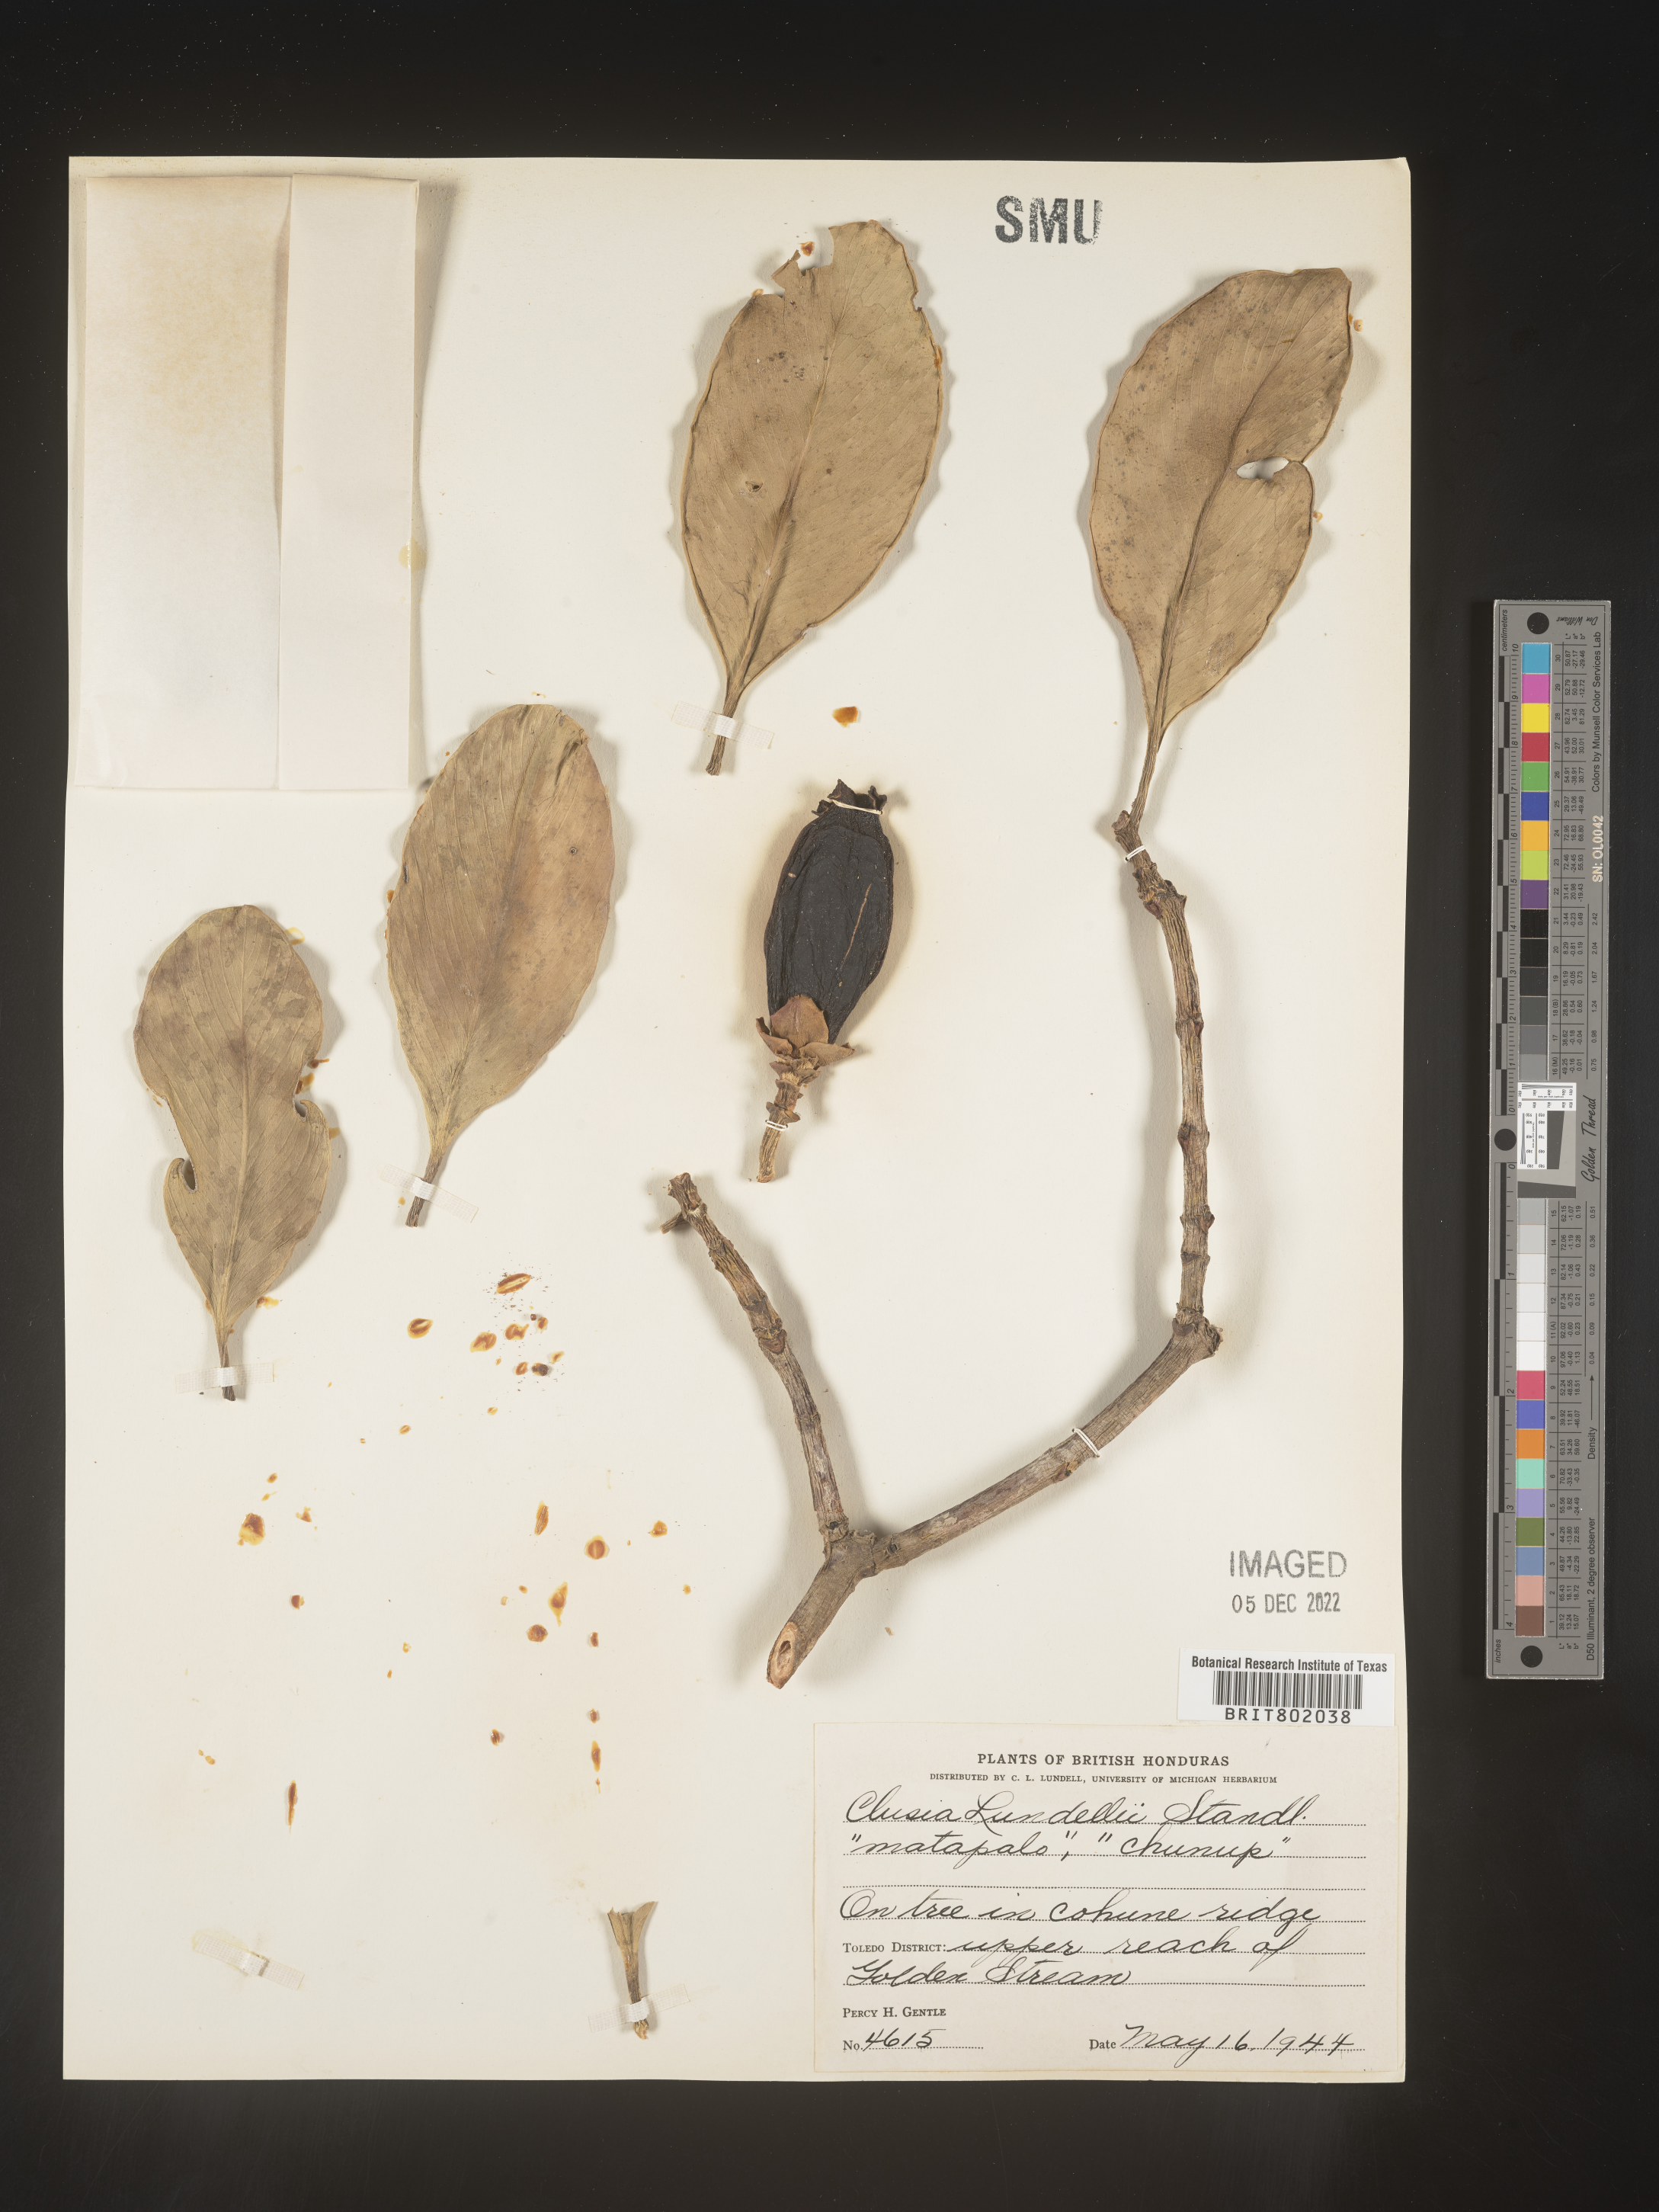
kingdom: Plantae
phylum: Tracheophyta
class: Magnoliopsida
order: Malpighiales
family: Clusiaceae
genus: Clusia
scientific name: Clusia
